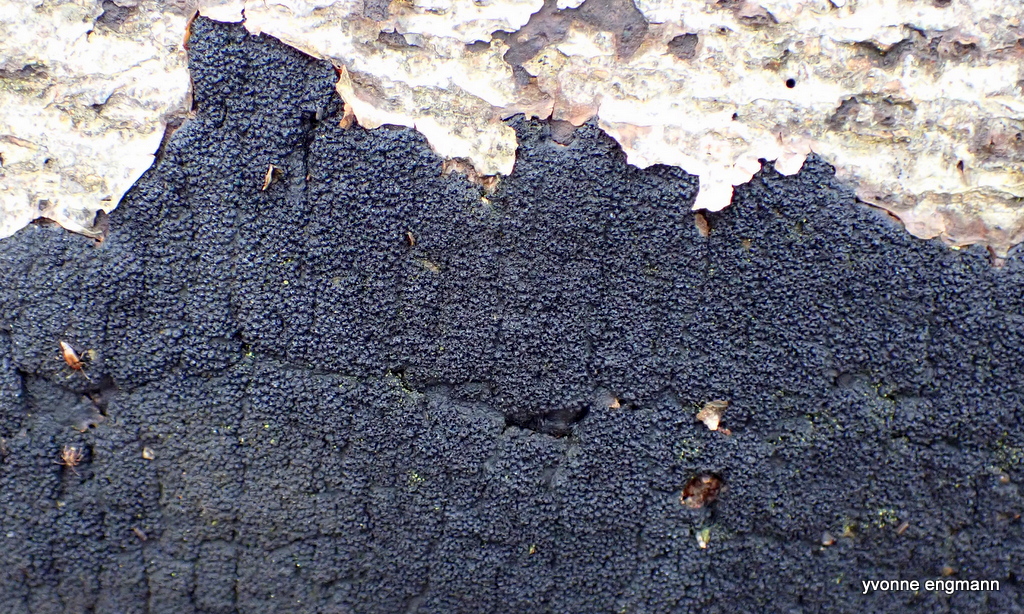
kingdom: Fungi
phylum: Ascomycota
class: Sordariomycetes
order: Xylariales
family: Diatrypaceae
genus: Eutypa
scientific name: Eutypa spinosa
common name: grov kulskorpe
